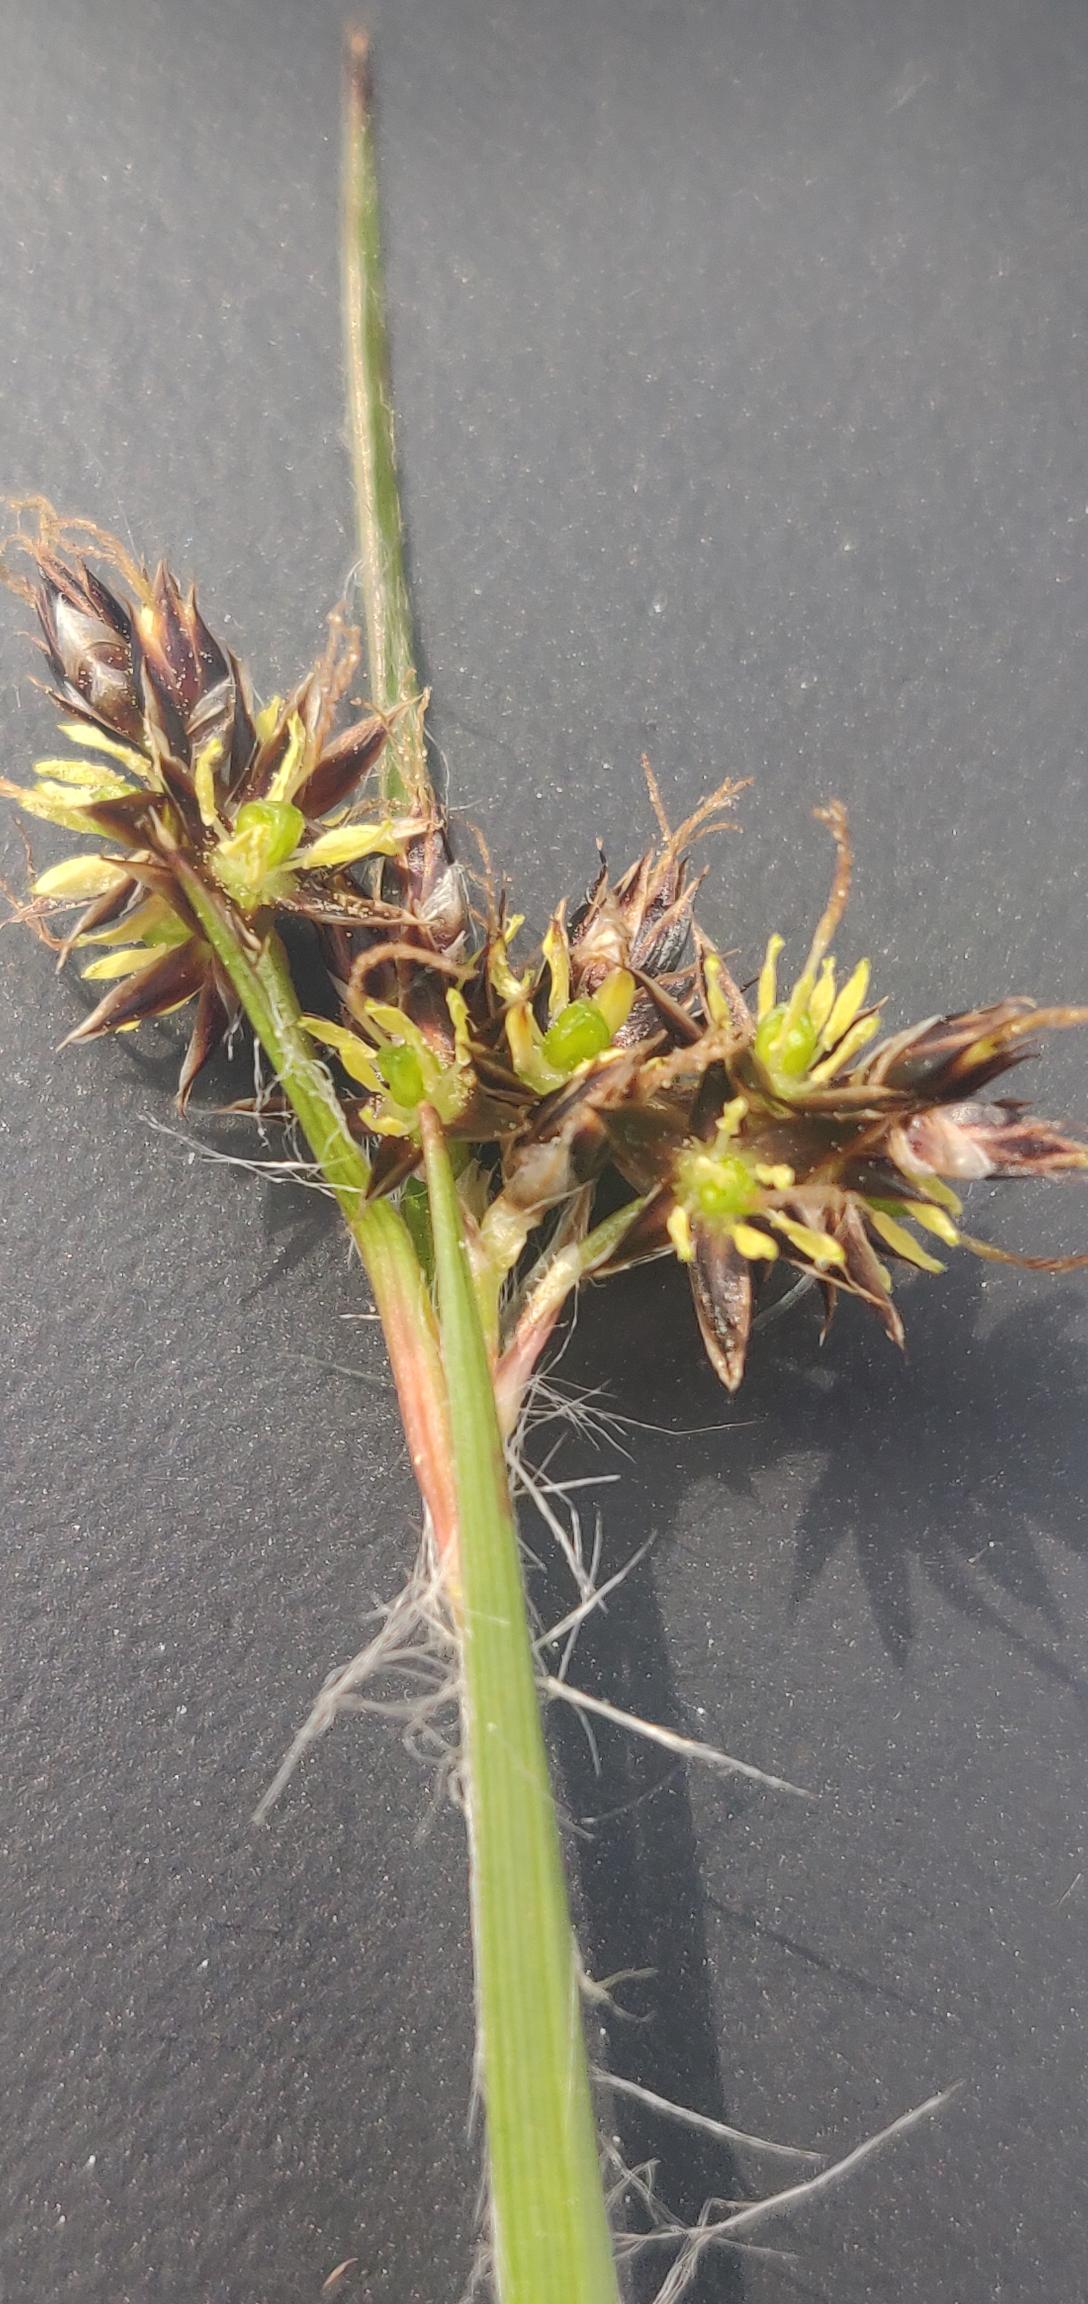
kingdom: Plantae
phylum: Tracheophyta
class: Liliopsida
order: Poales
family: Juncaceae
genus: Luzula
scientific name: Luzula campestris
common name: Mark-frytle
